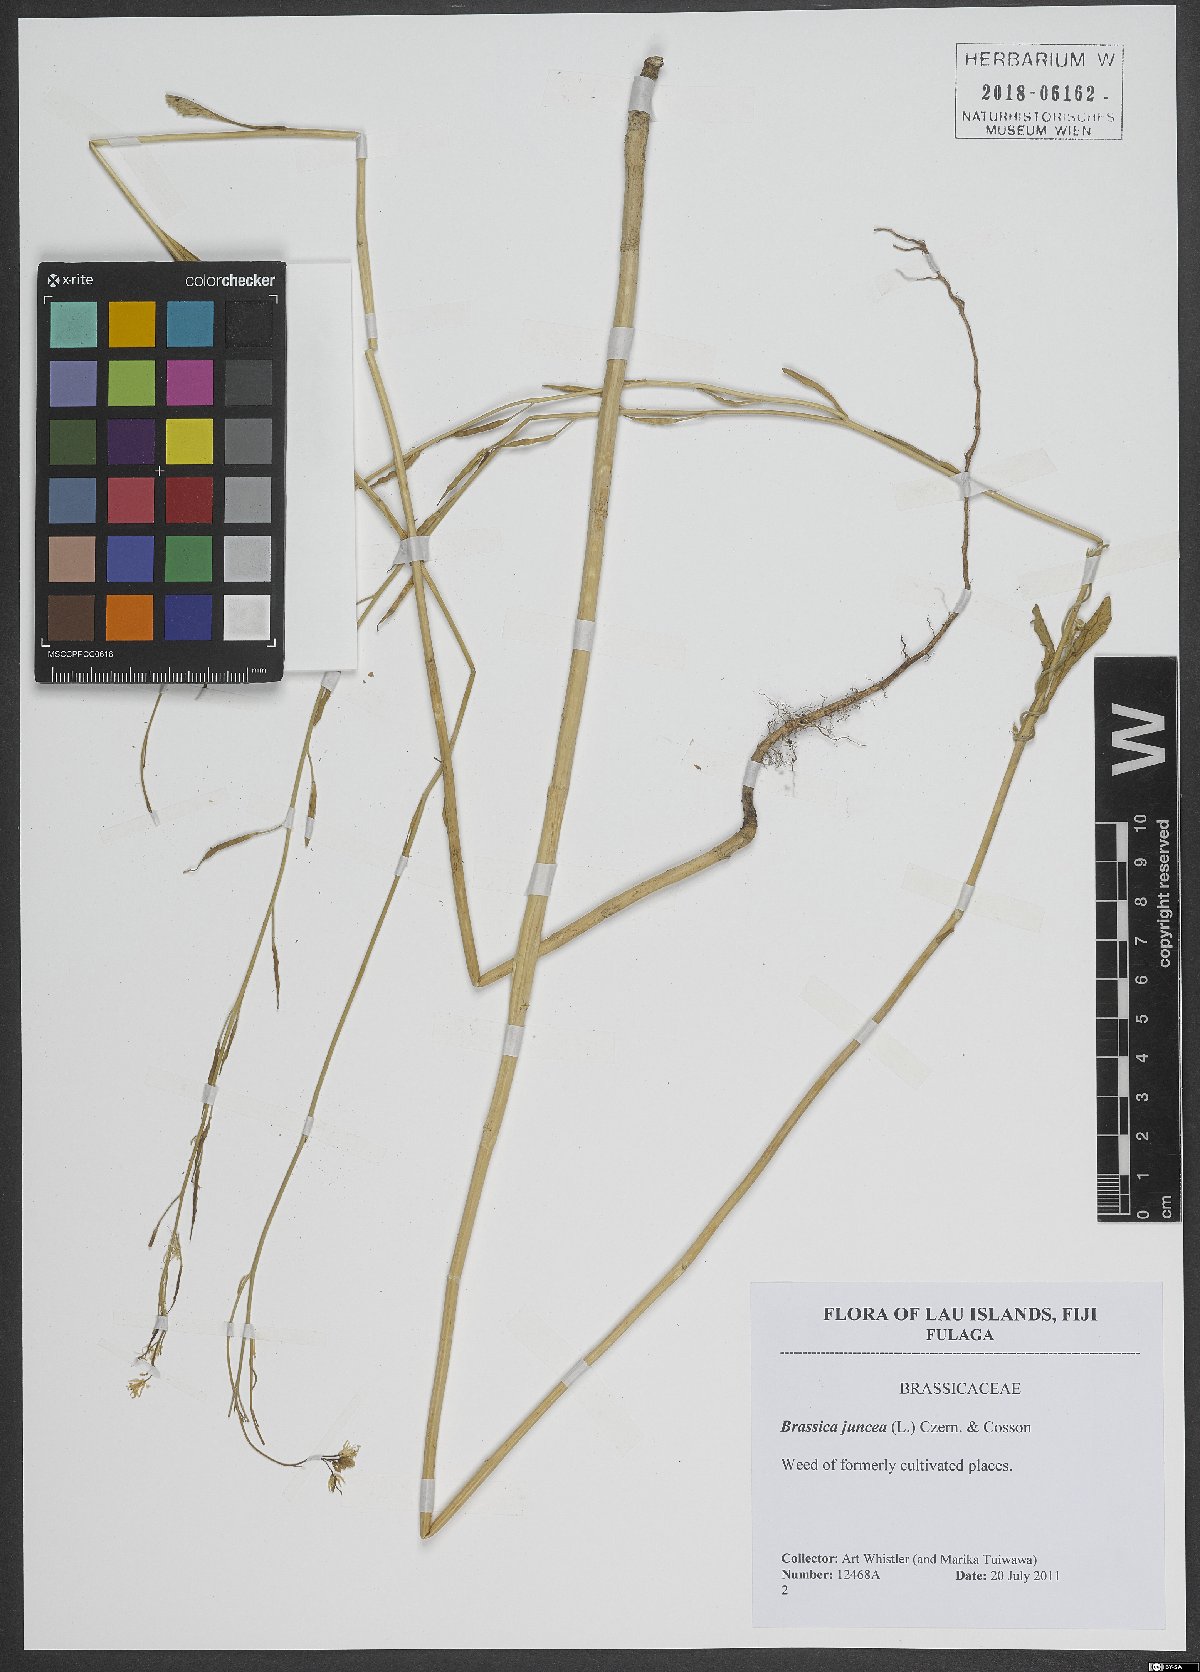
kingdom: Plantae
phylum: Tracheophyta
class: Magnoliopsida
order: Brassicales
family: Brassicaceae
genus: Brassica
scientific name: Brassica juncea
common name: Brown mustard
